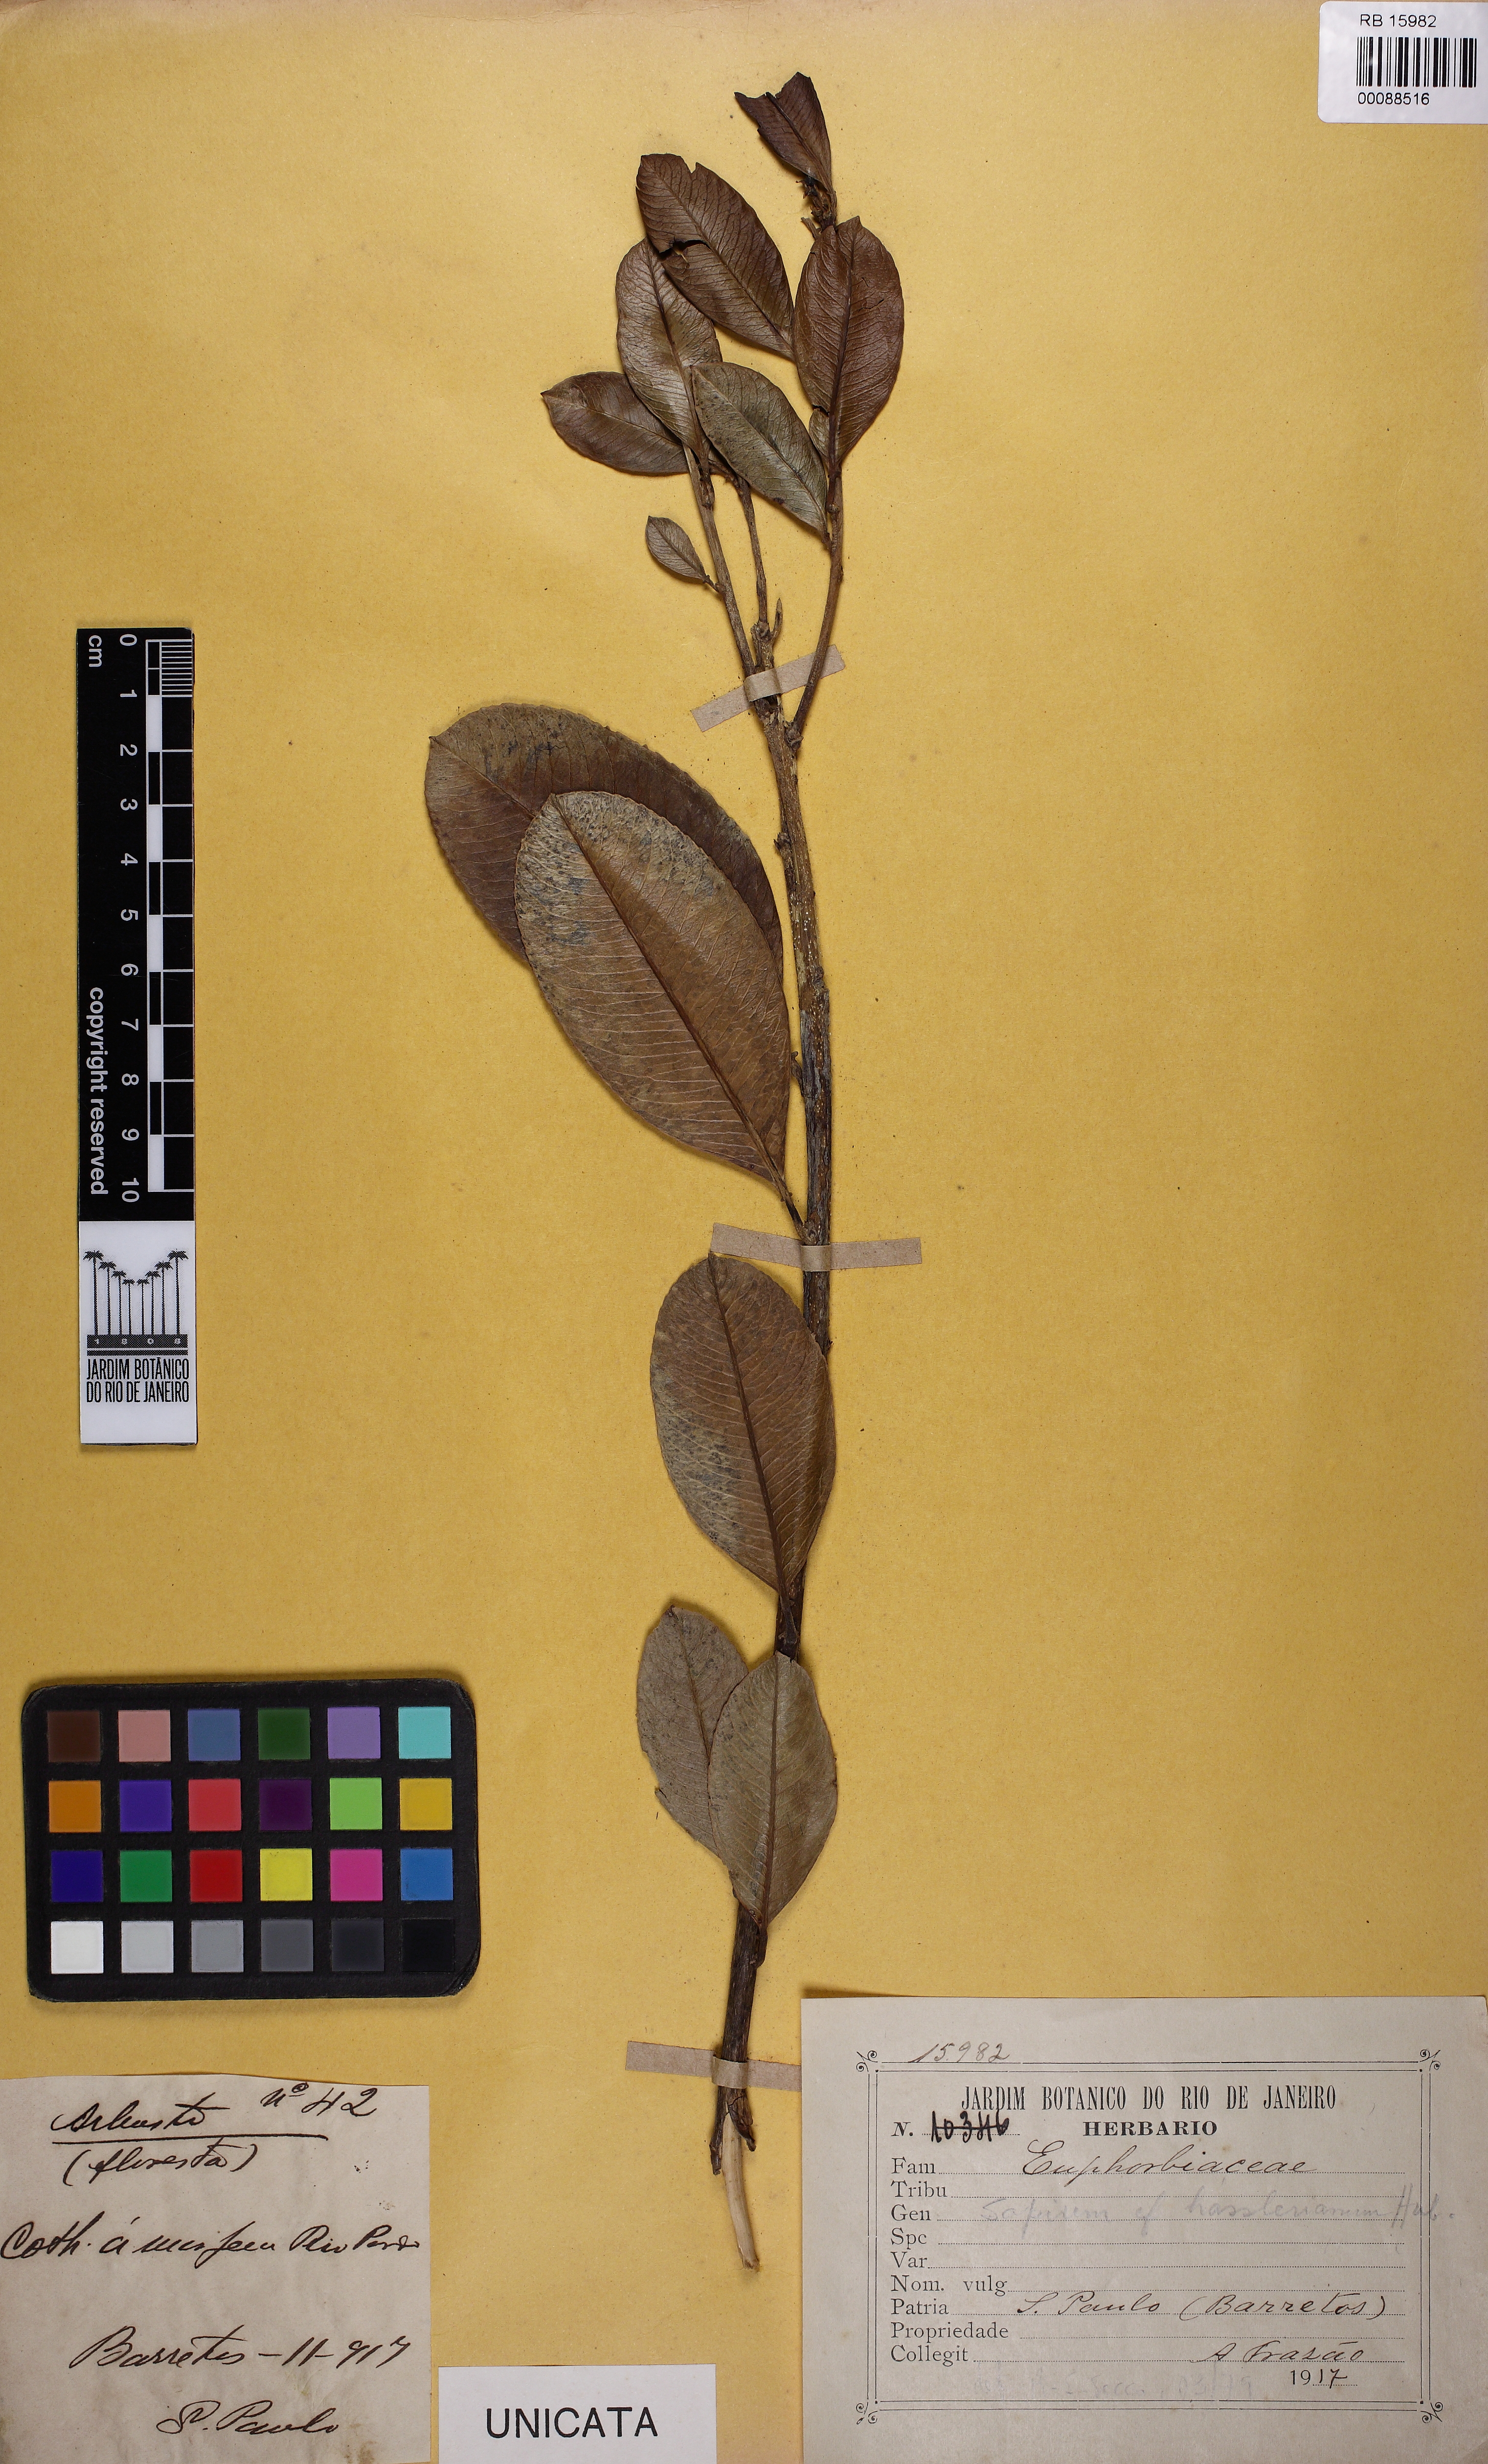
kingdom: Plantae
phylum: Tracheophyta
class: Magnoliopsida
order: Malpighiales
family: Euphorbiaceae
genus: Sapium
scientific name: Sapium obovatum
